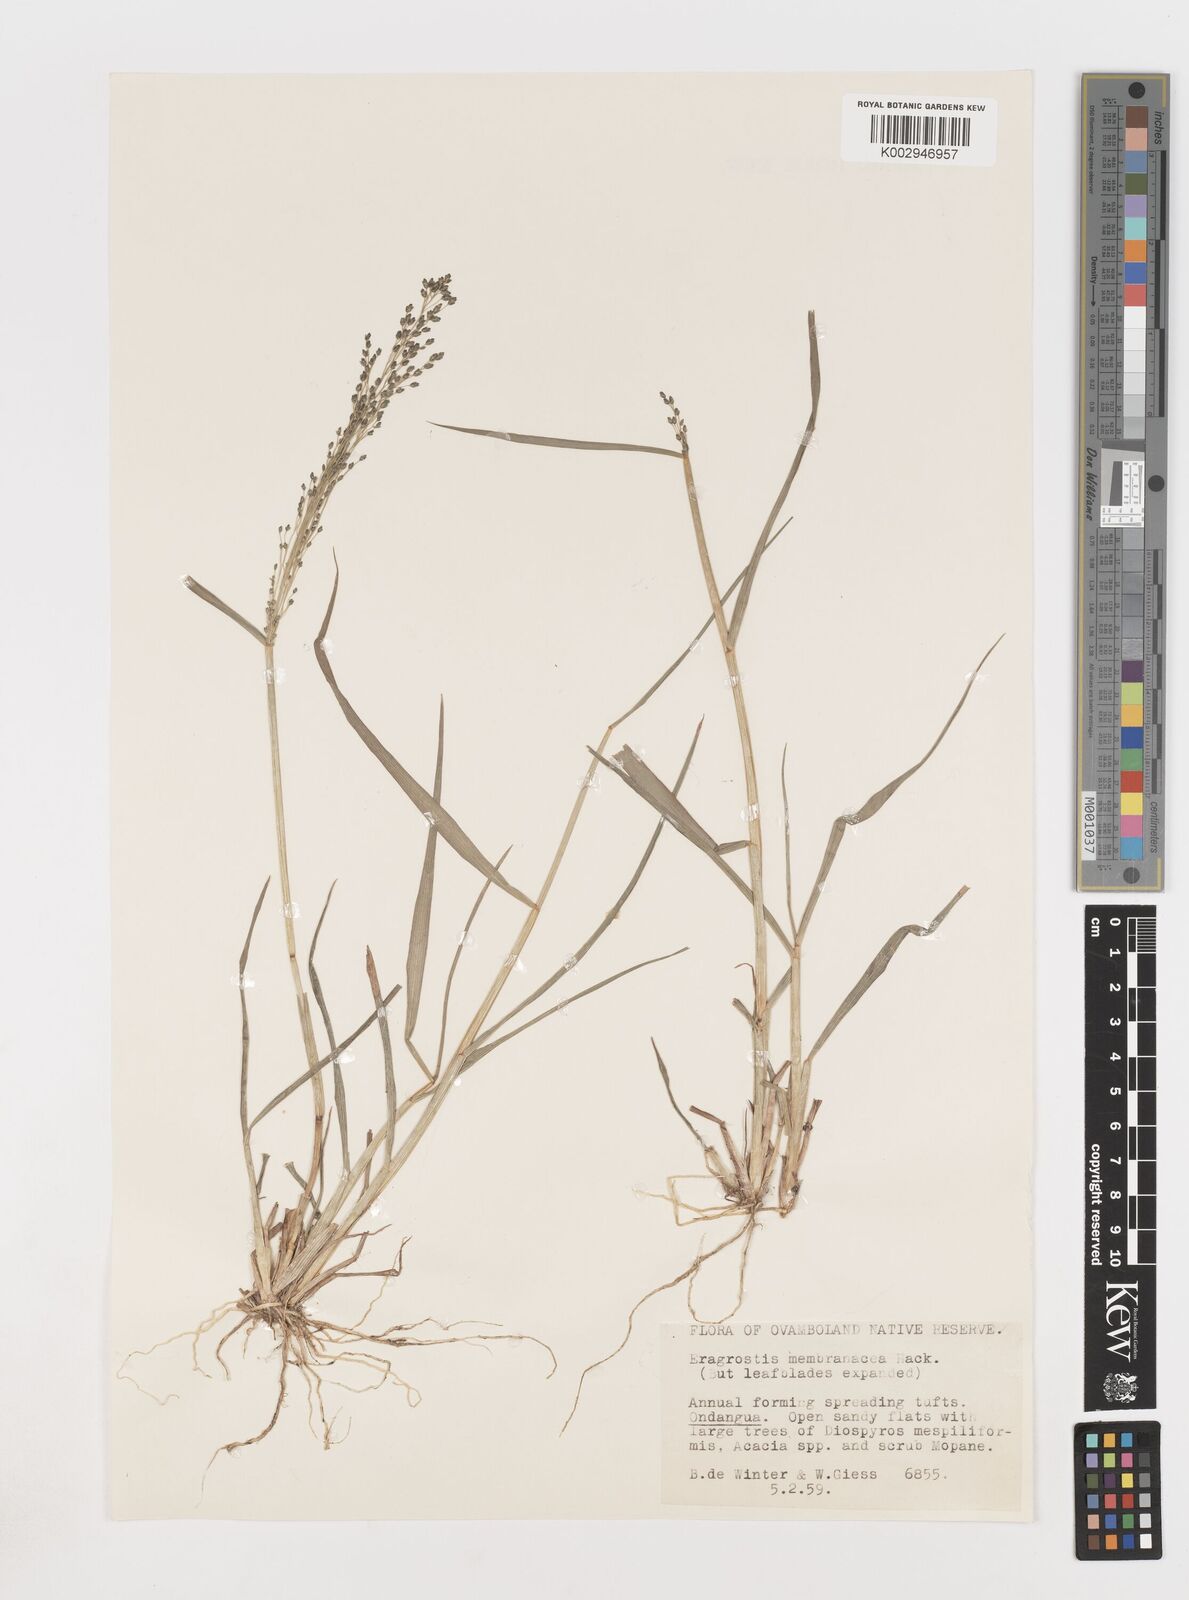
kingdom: Plantae
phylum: Tracheophyta
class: Liliopsida
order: Poales
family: Poaceae
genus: Eragrostis
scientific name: Eragrostis membranacea
